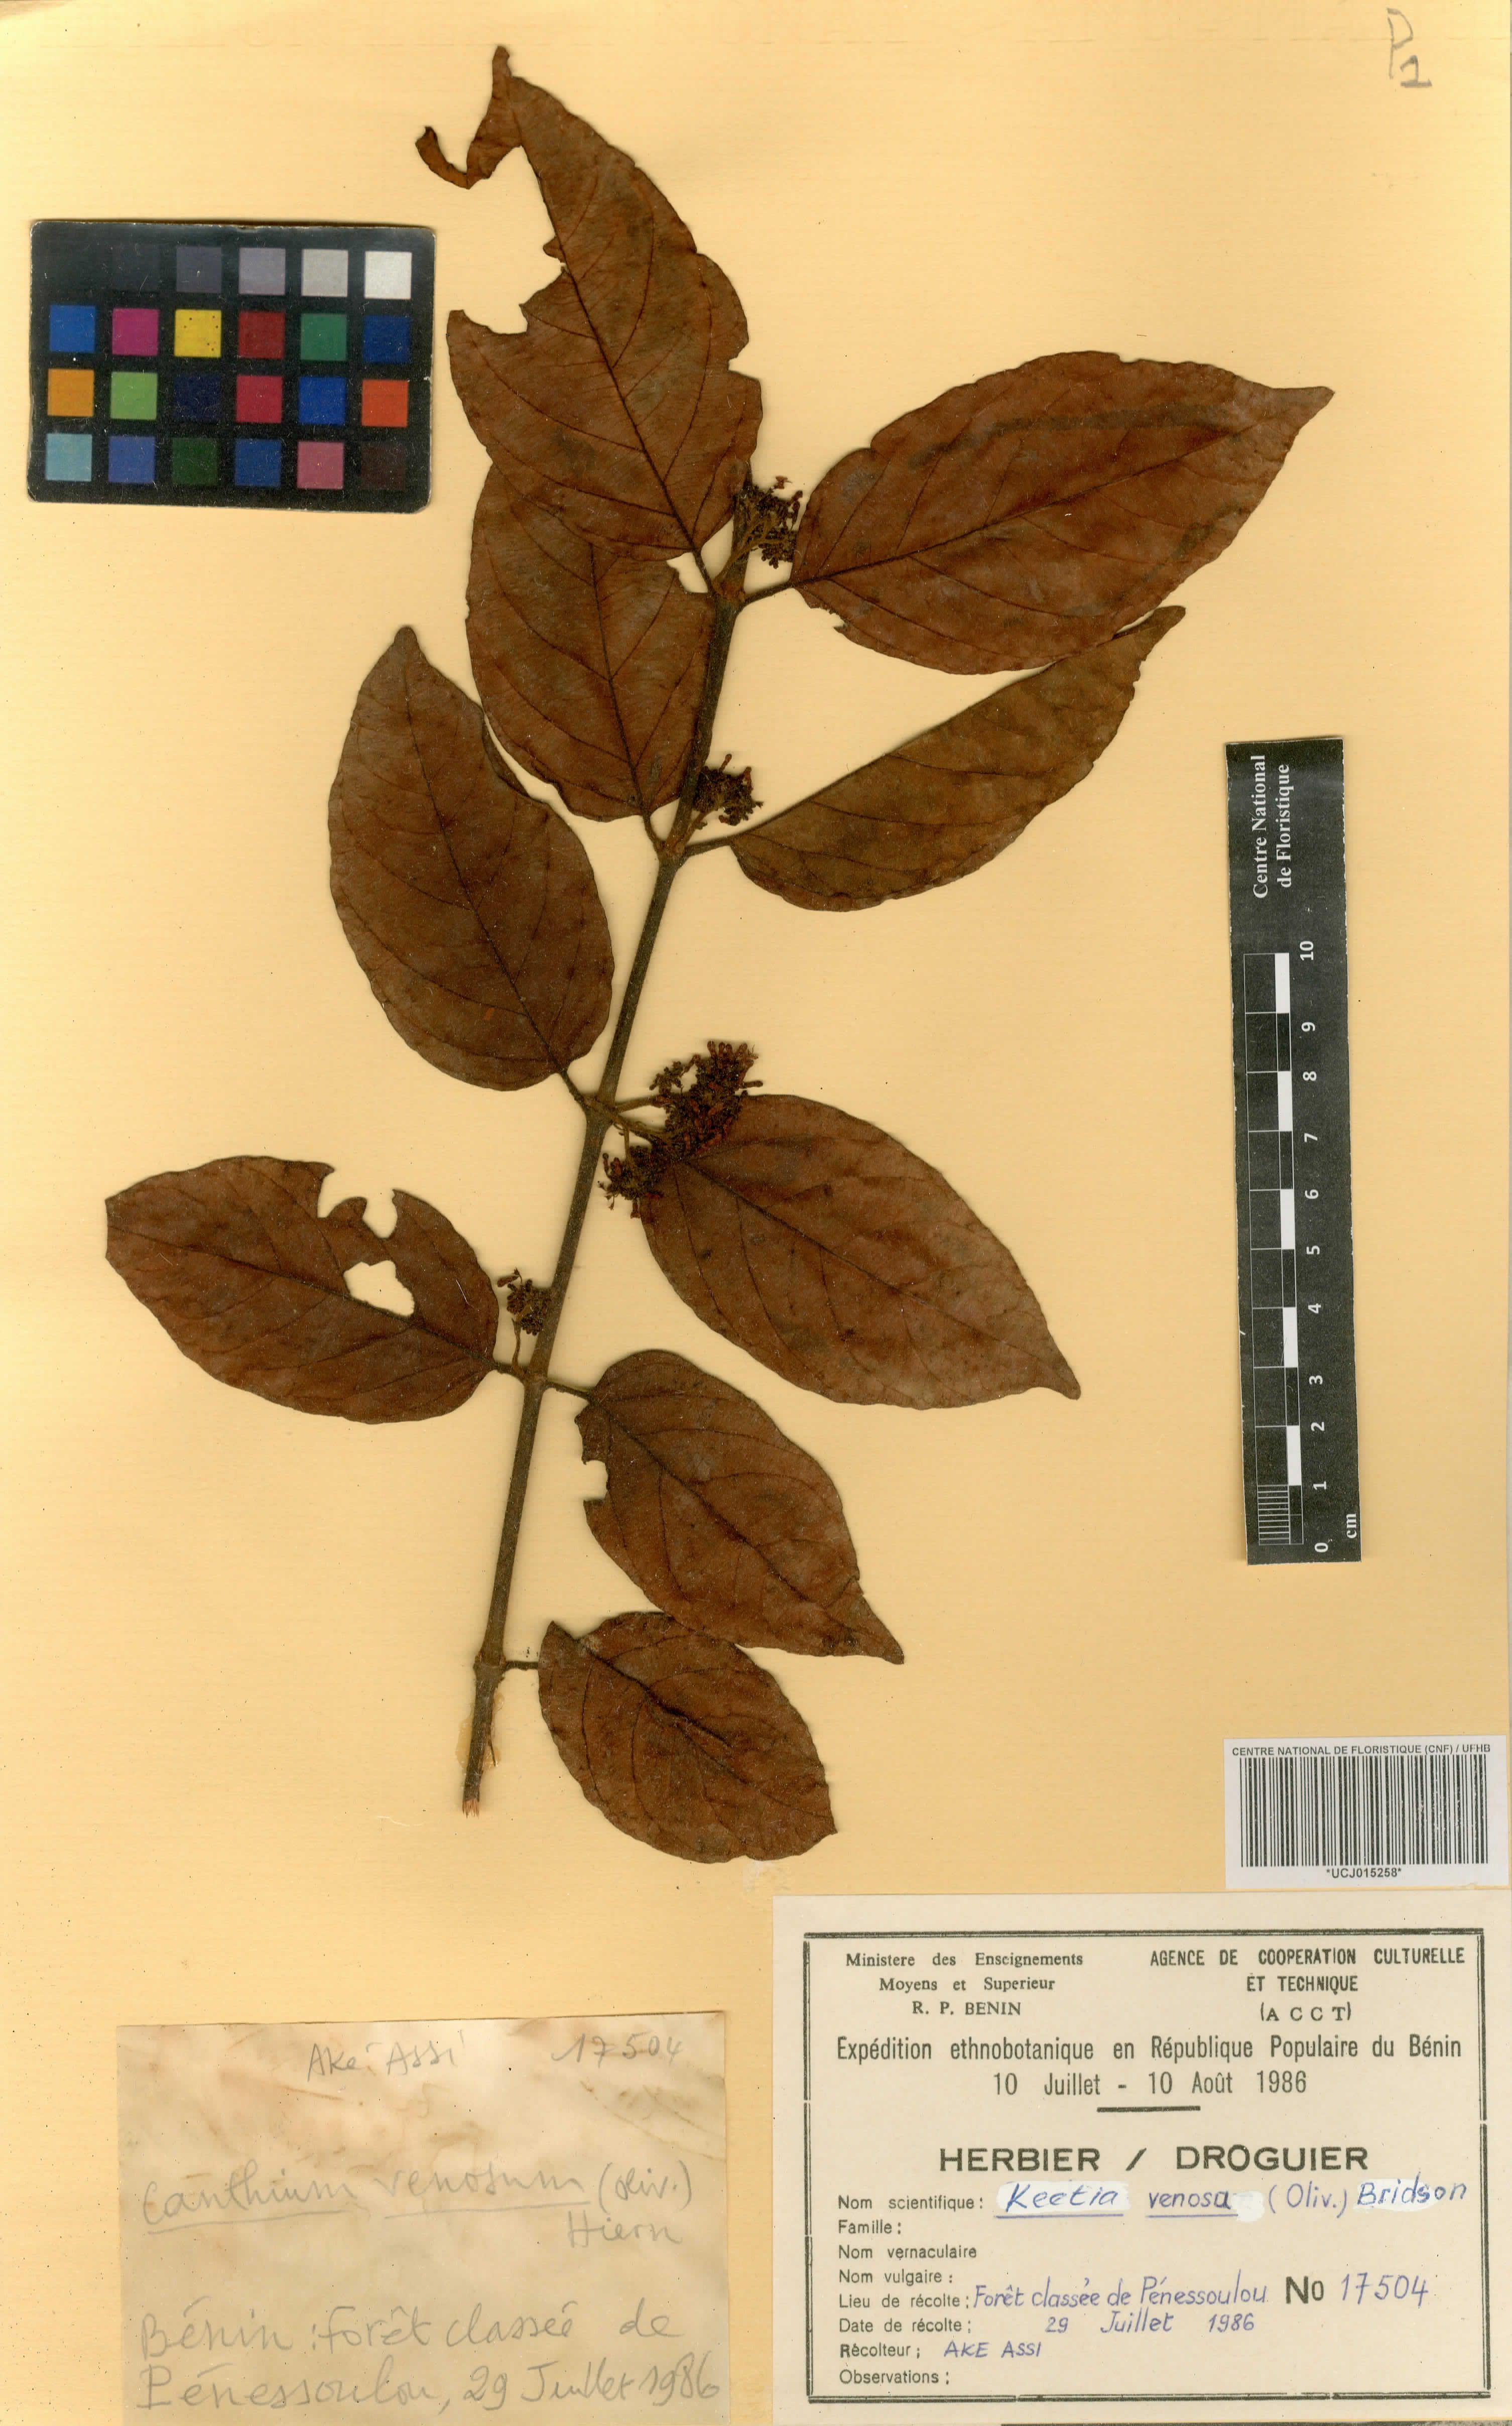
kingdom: Plantae
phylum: Tracheophyta
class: Magnoliopsida
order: Gentianales
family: Rubiaceae
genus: Keetia
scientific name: Keetia venosa
